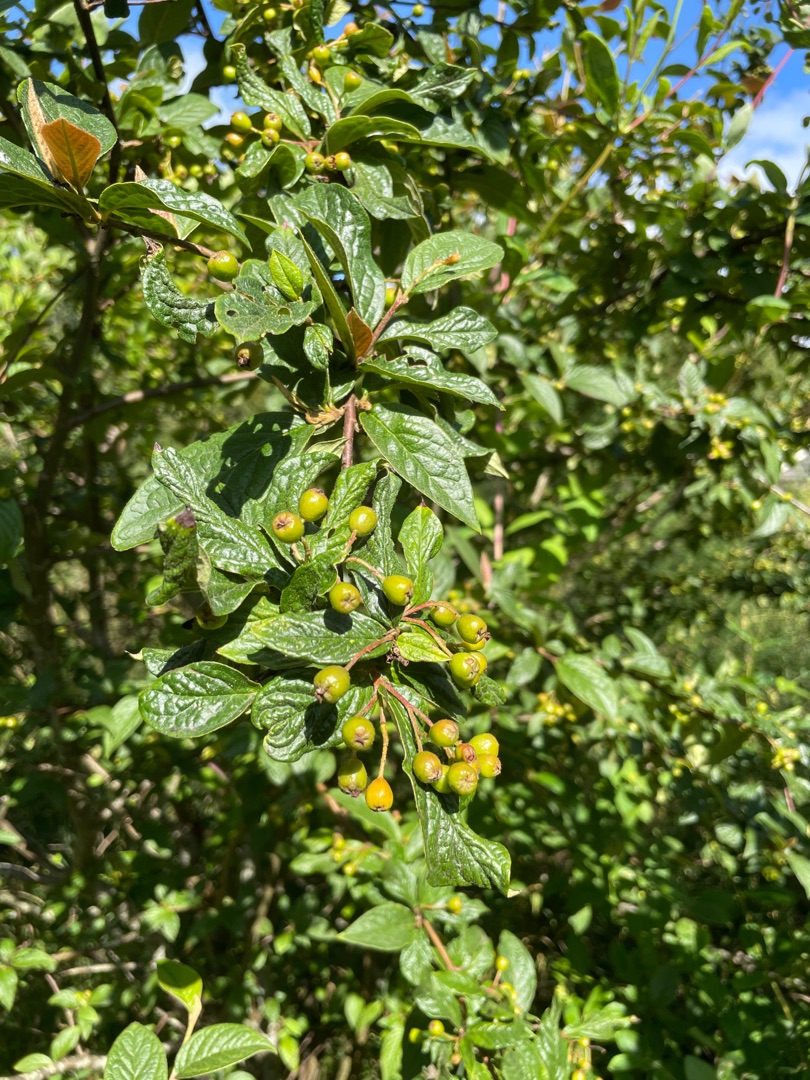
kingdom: Plantae
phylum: Tracheophyta
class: Magnoliopsida
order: Rosales
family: Rosaceae
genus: Cotoneaster
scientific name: Cotoneaster bullatus
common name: Storbladet dværgmispel
